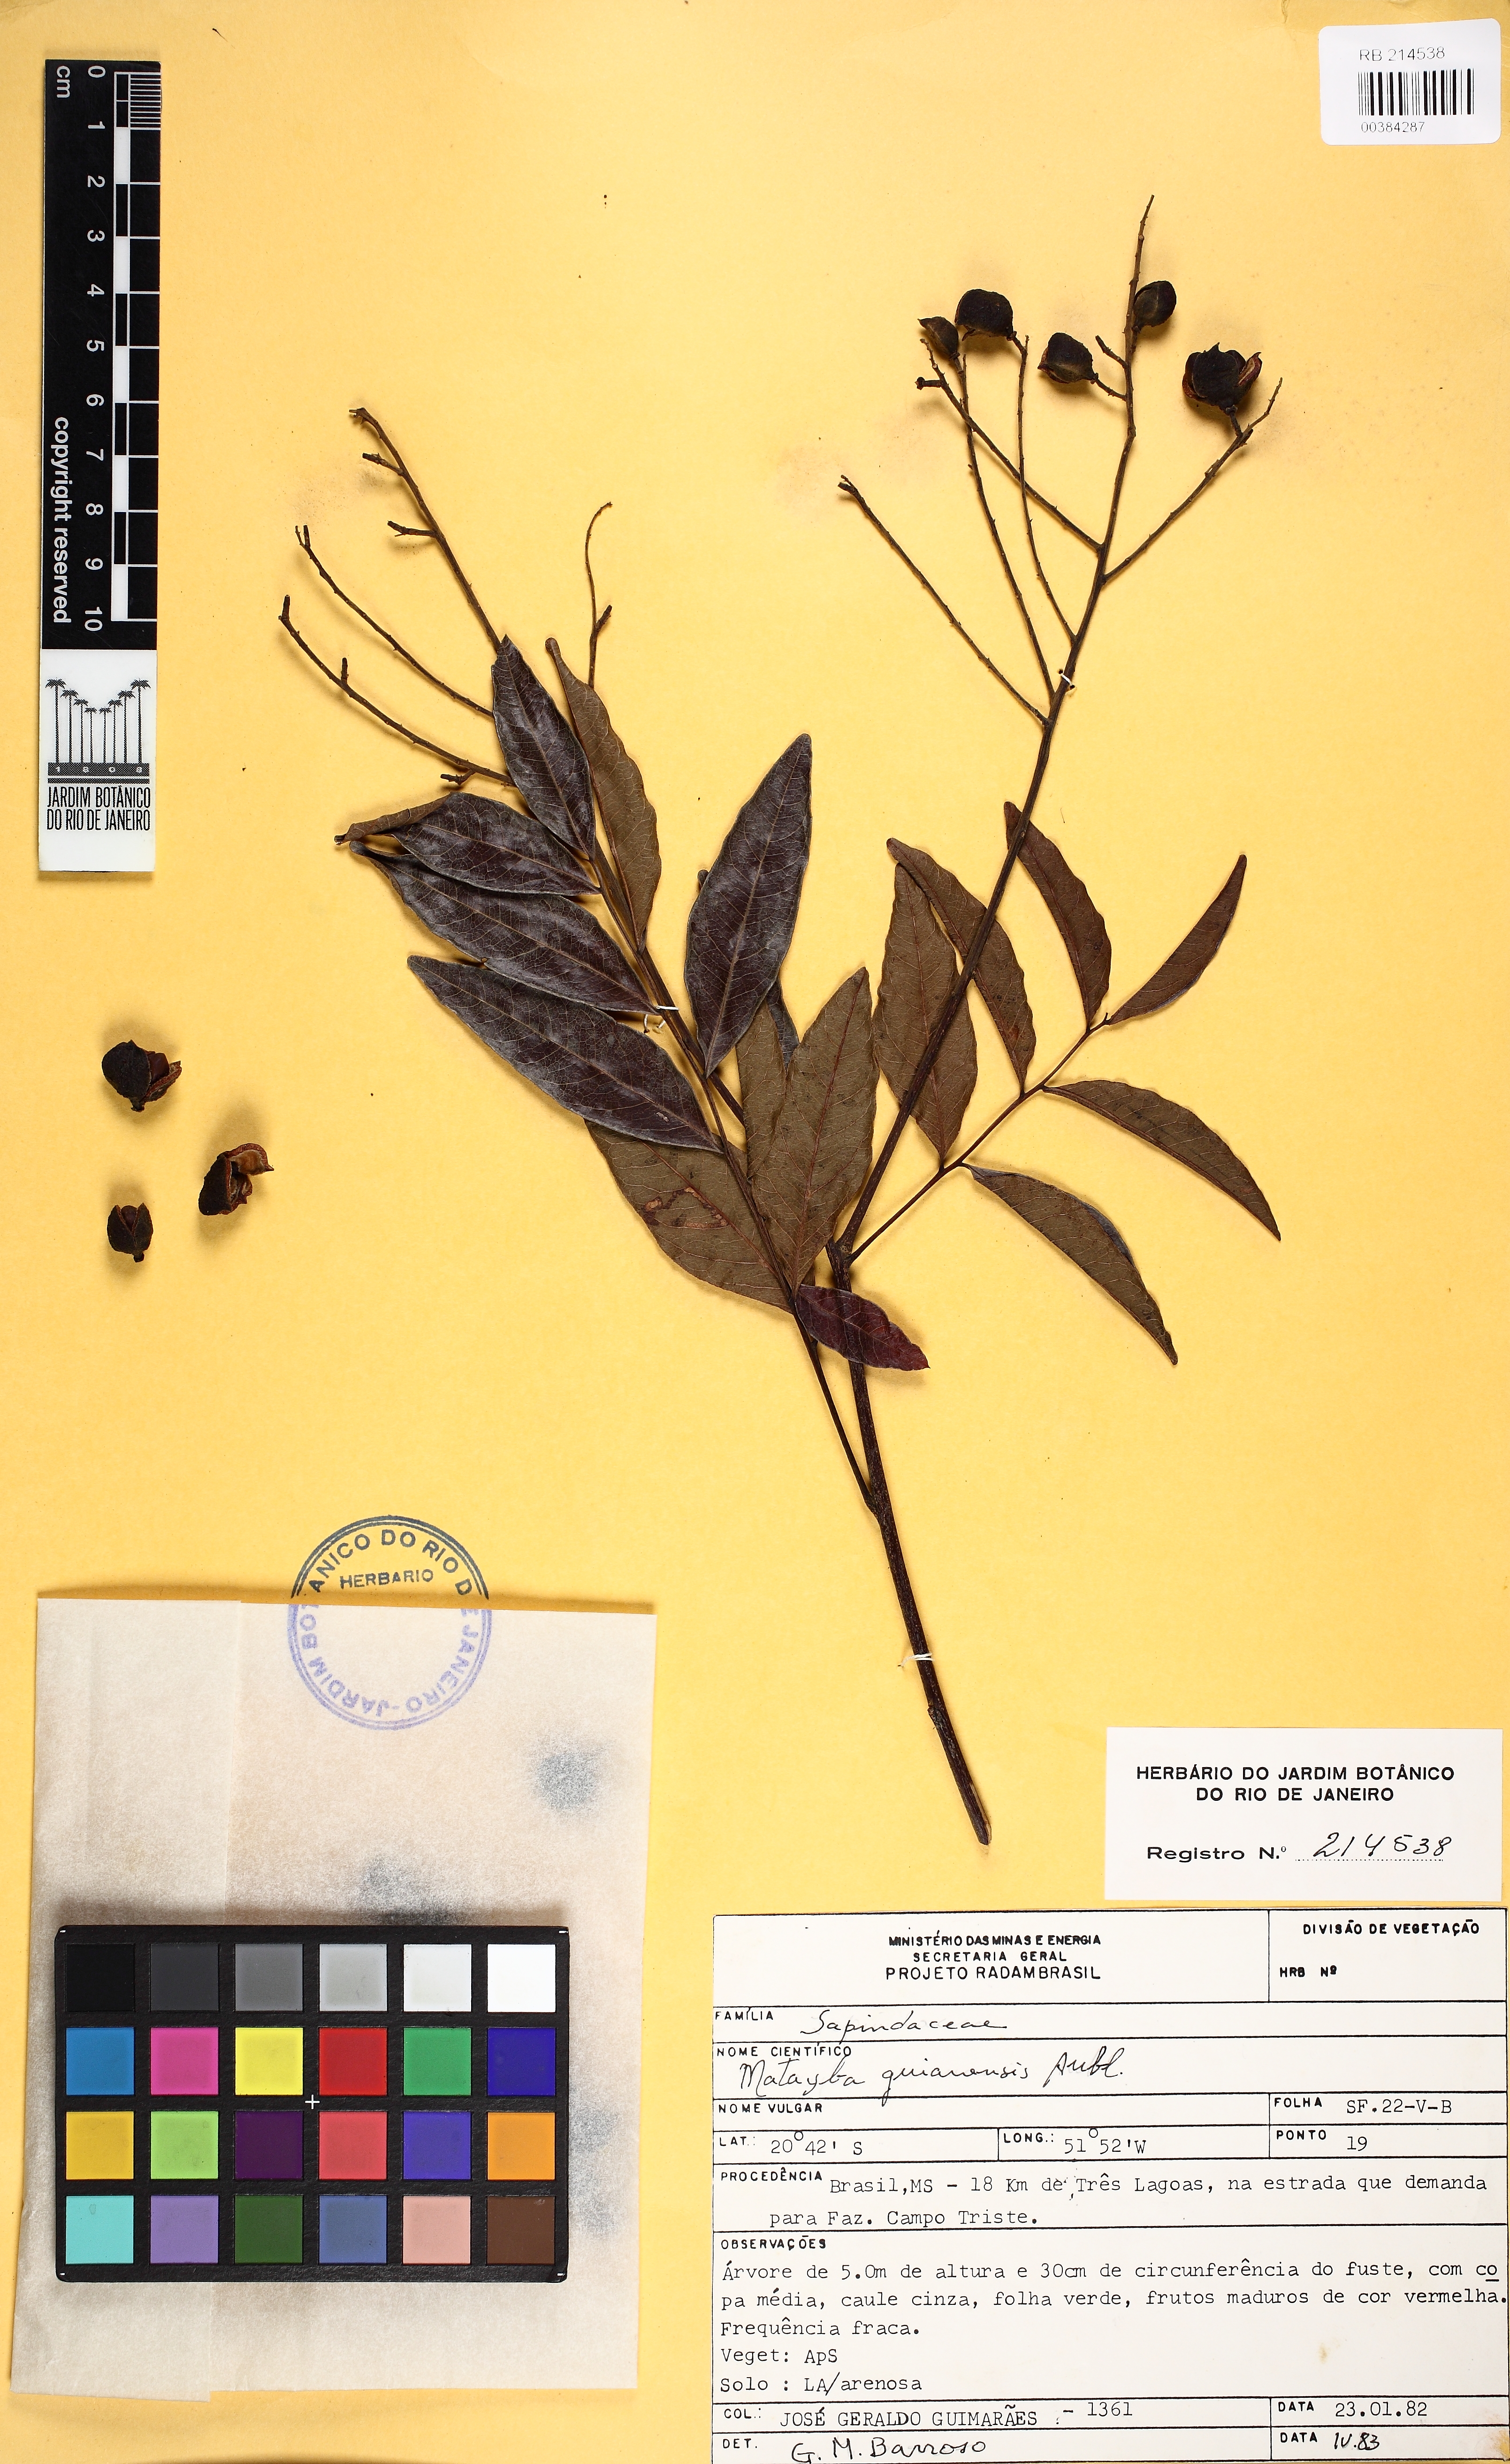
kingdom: Plantae
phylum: Tracheophyta
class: Magnoliopsida
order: Sapindales
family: Sapindaceae
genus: Matayba
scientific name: Matayba guianensis
